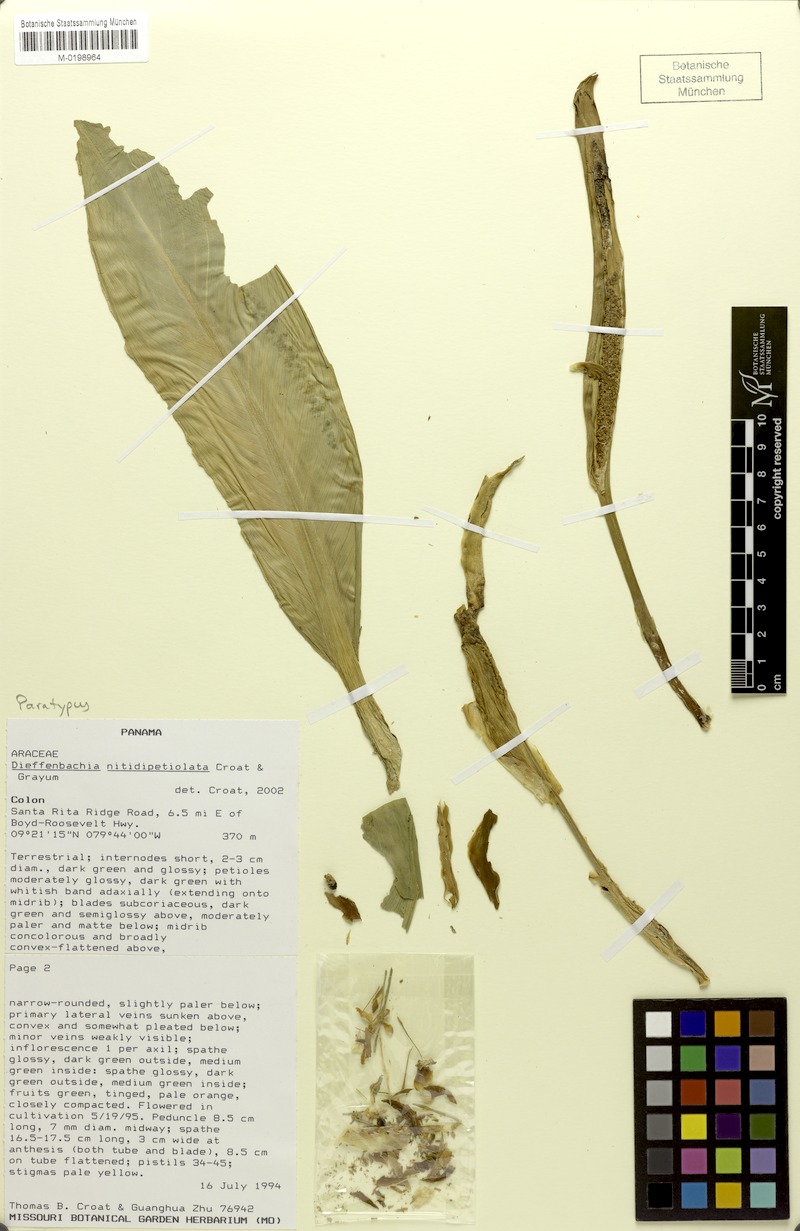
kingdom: Plantae
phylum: Tracheophyta
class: Liliopsida
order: Alismatales
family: Araceae
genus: Dieffenbachia
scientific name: Dieffenbachia nitidipetiolata
